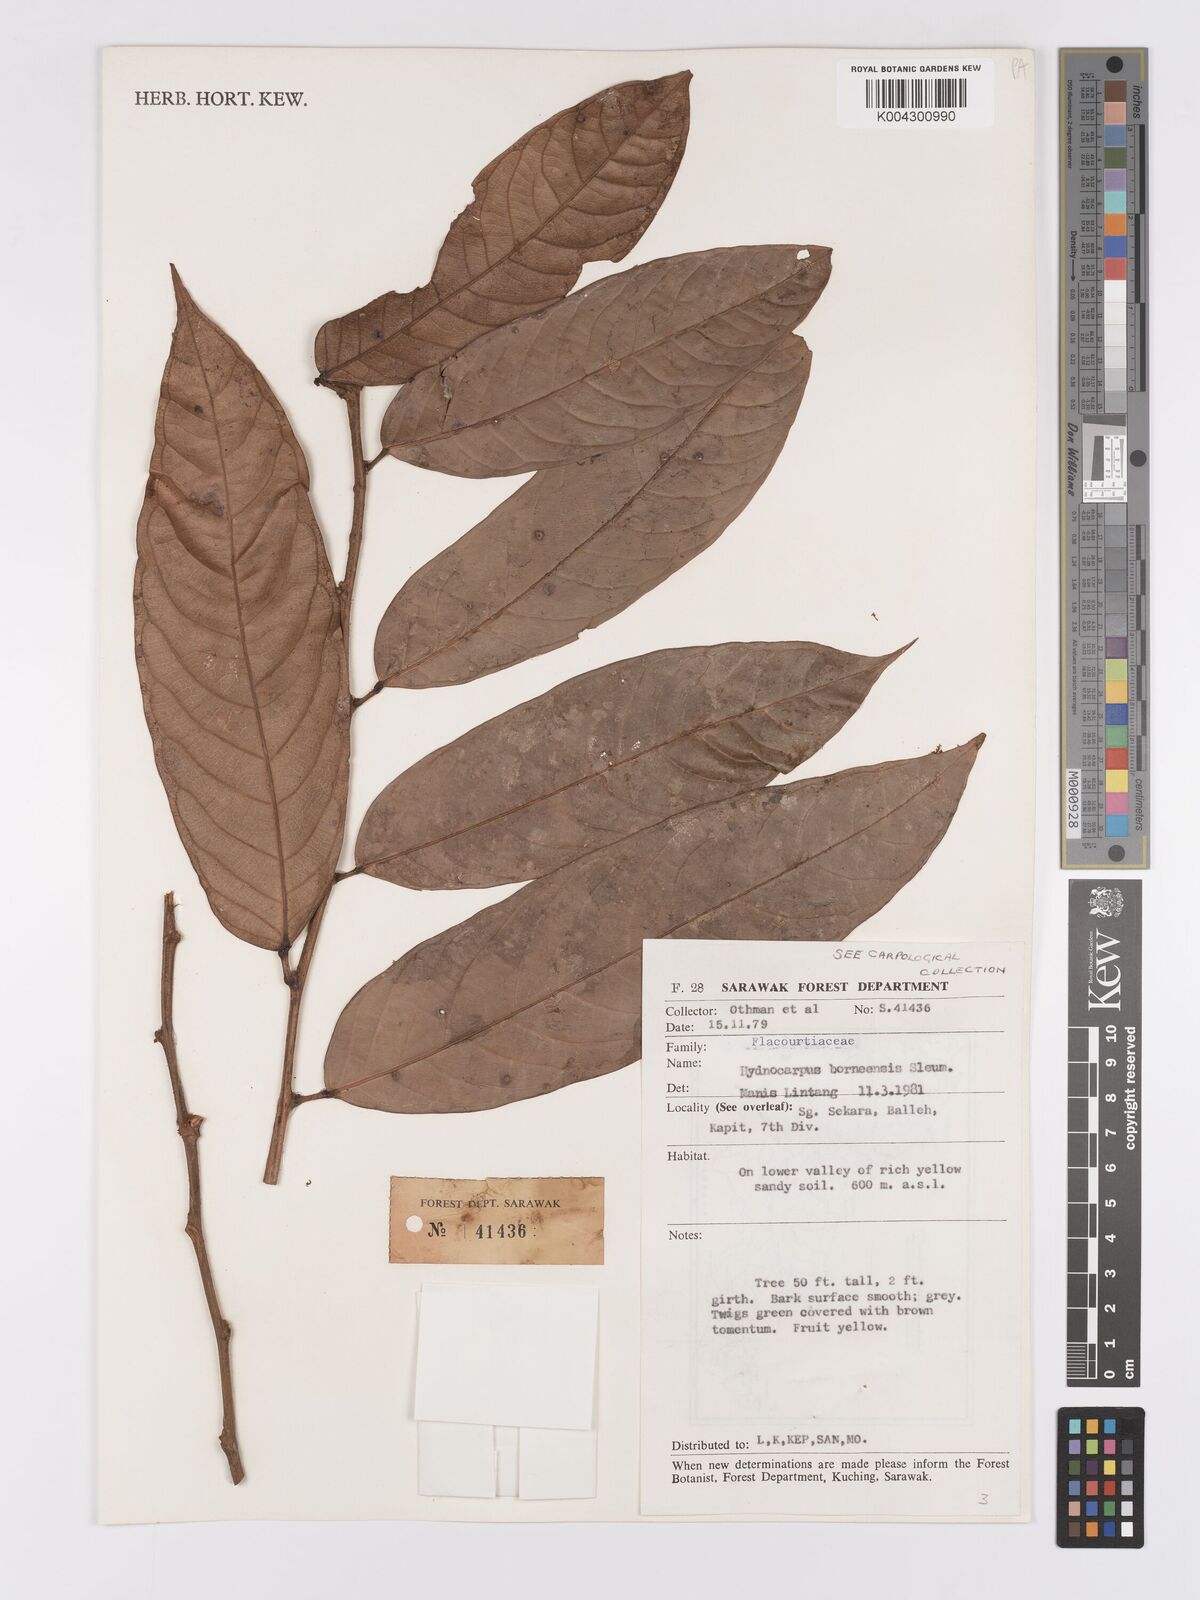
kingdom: Plantae
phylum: Tracheophyta
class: Magnoliopsida
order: Malpighiales
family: Achariaceae
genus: Hydnocarpus
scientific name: Hydnocarpus borneensis
